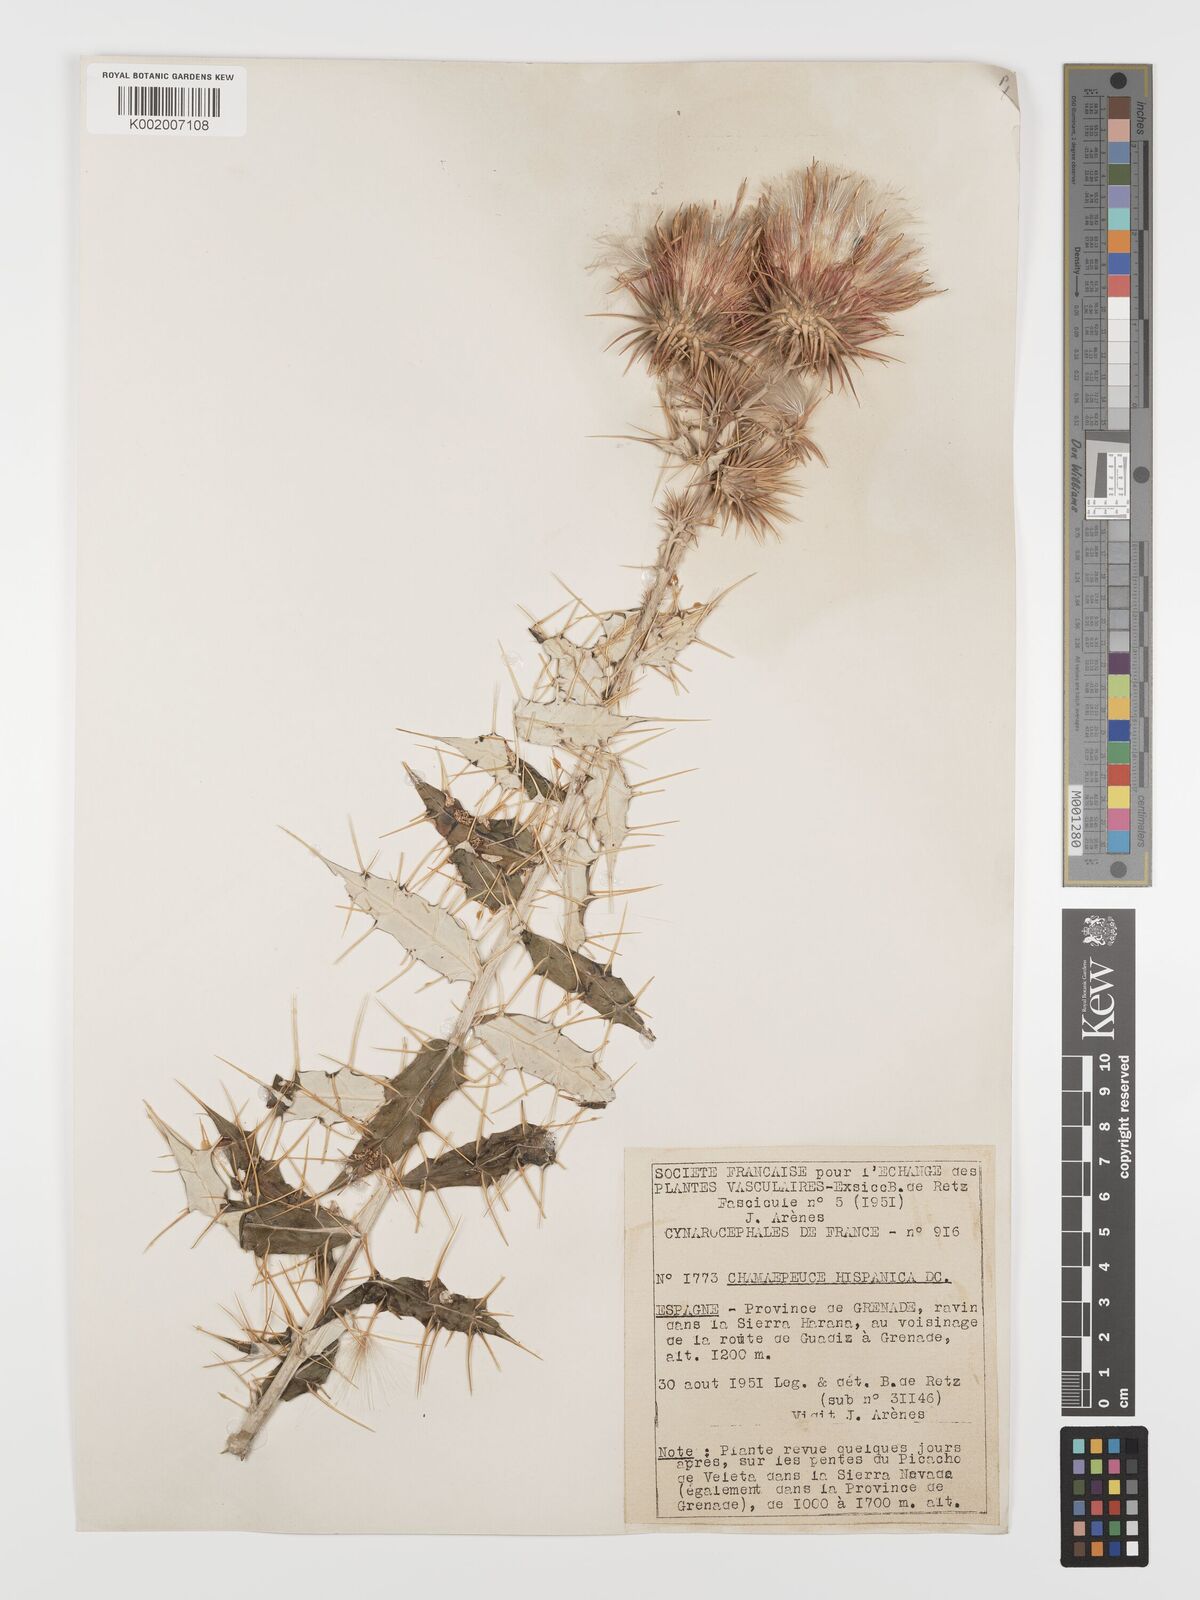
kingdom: Plantae
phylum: Tracheophyta
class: Magnoliopsida
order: Asterales
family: Asteraceae
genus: Ptilostemon
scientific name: Ptilostemon hispanicus
